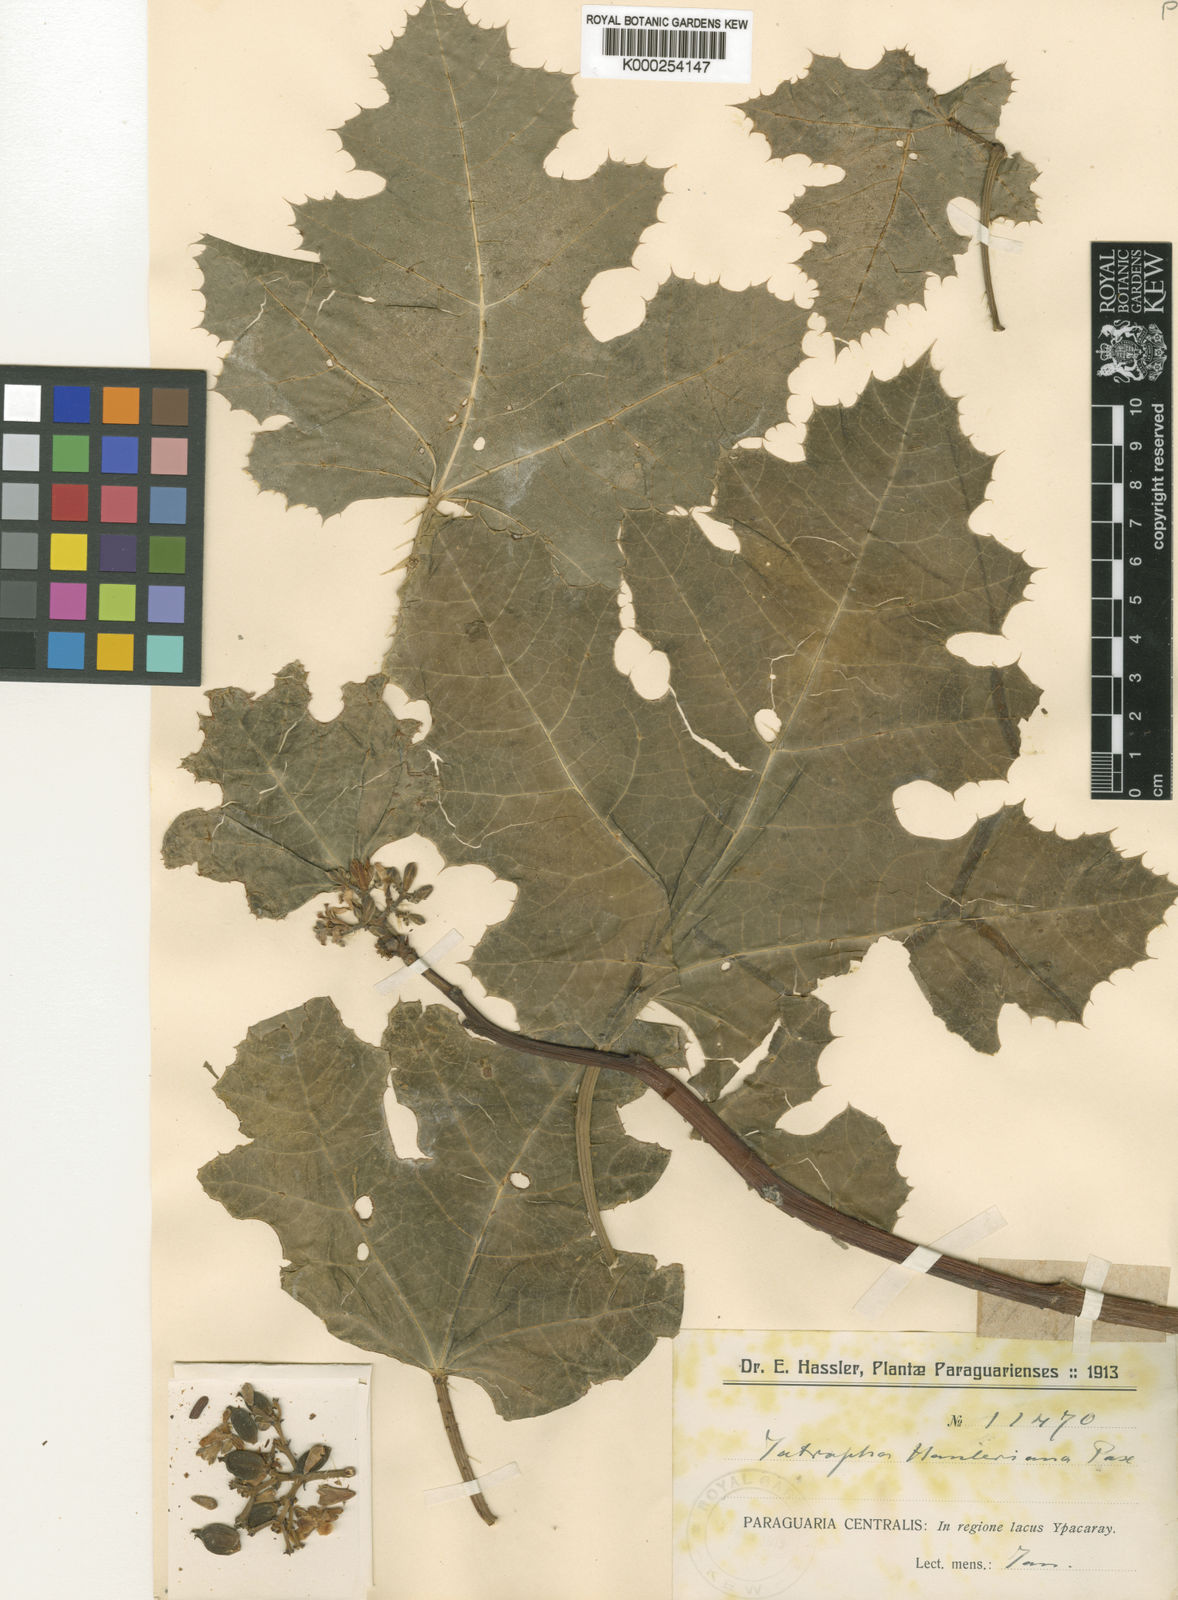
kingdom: Plantae
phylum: Tracheophyta
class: Magnoliopsida
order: Malpighiales
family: Euphorbiaceae
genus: Cnidoscolus
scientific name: Cnidoscolus albomaculatus
